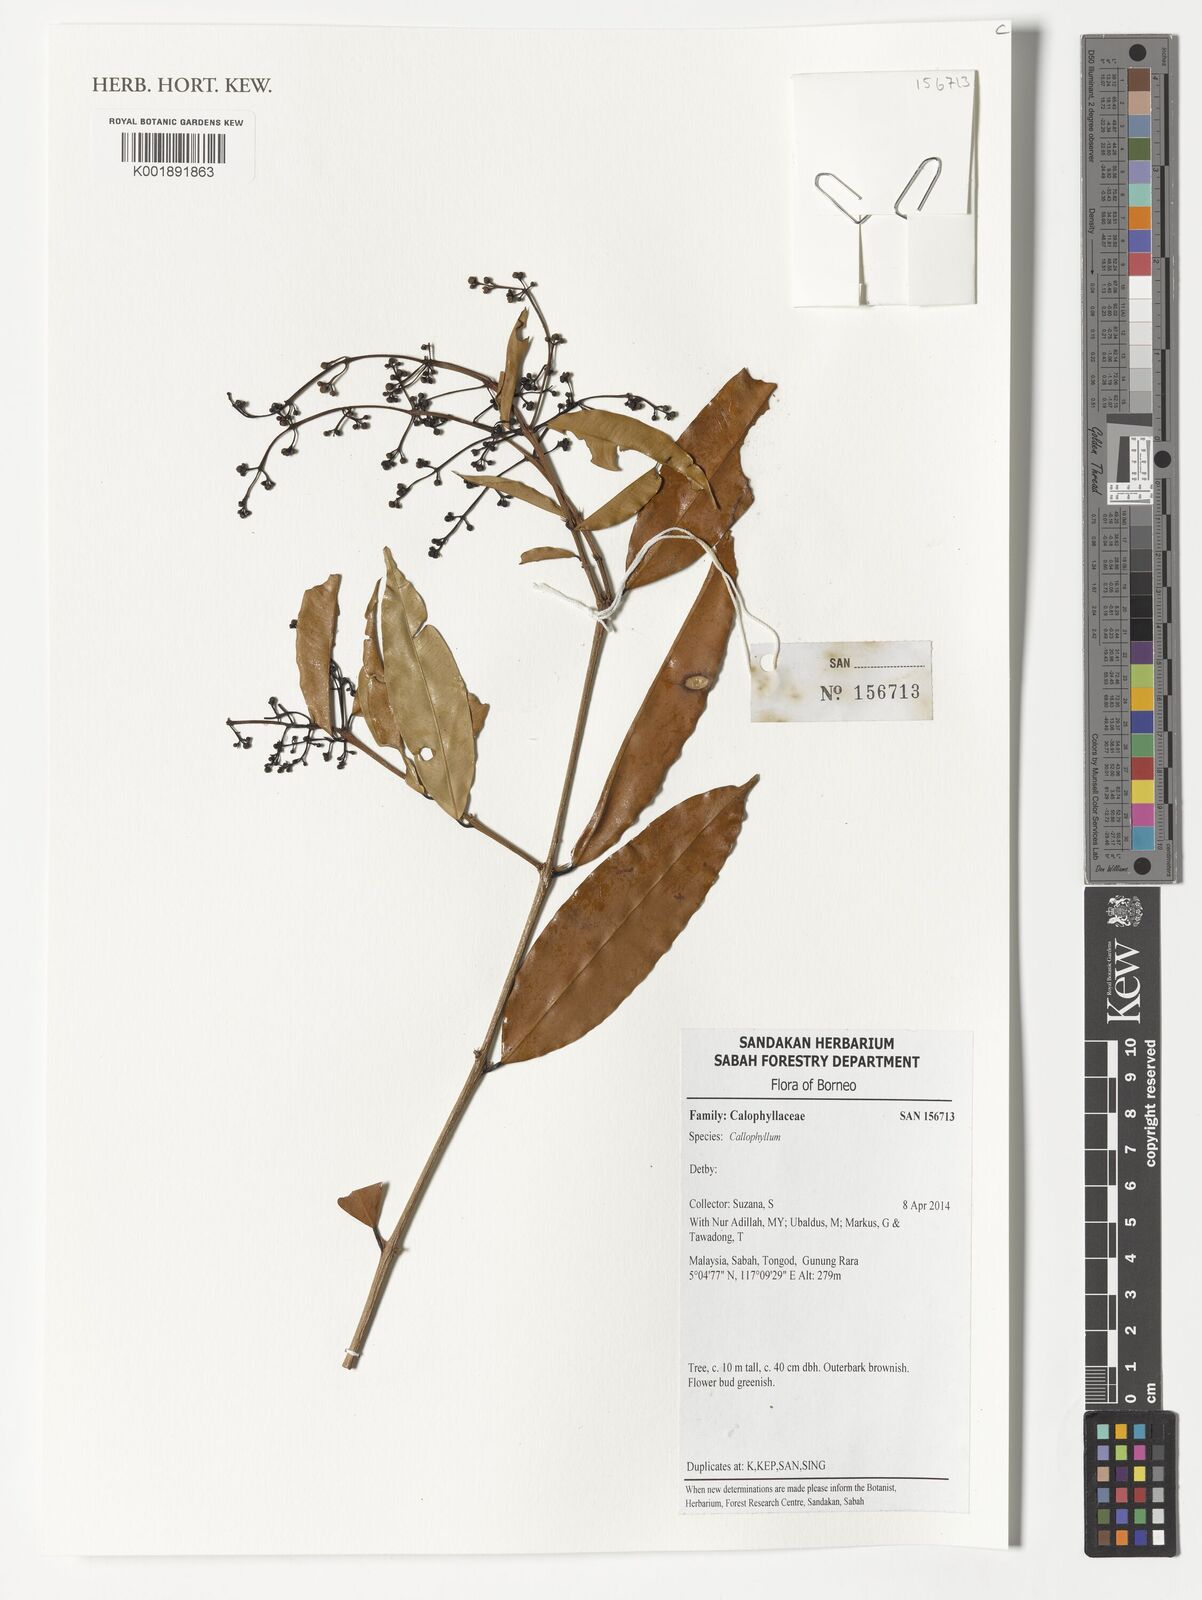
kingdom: Plantae
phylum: Tracheophyta
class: Magnoliopsida
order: Malpighiales
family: Calophyllaceae
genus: Calophyllum
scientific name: Calophyllum
